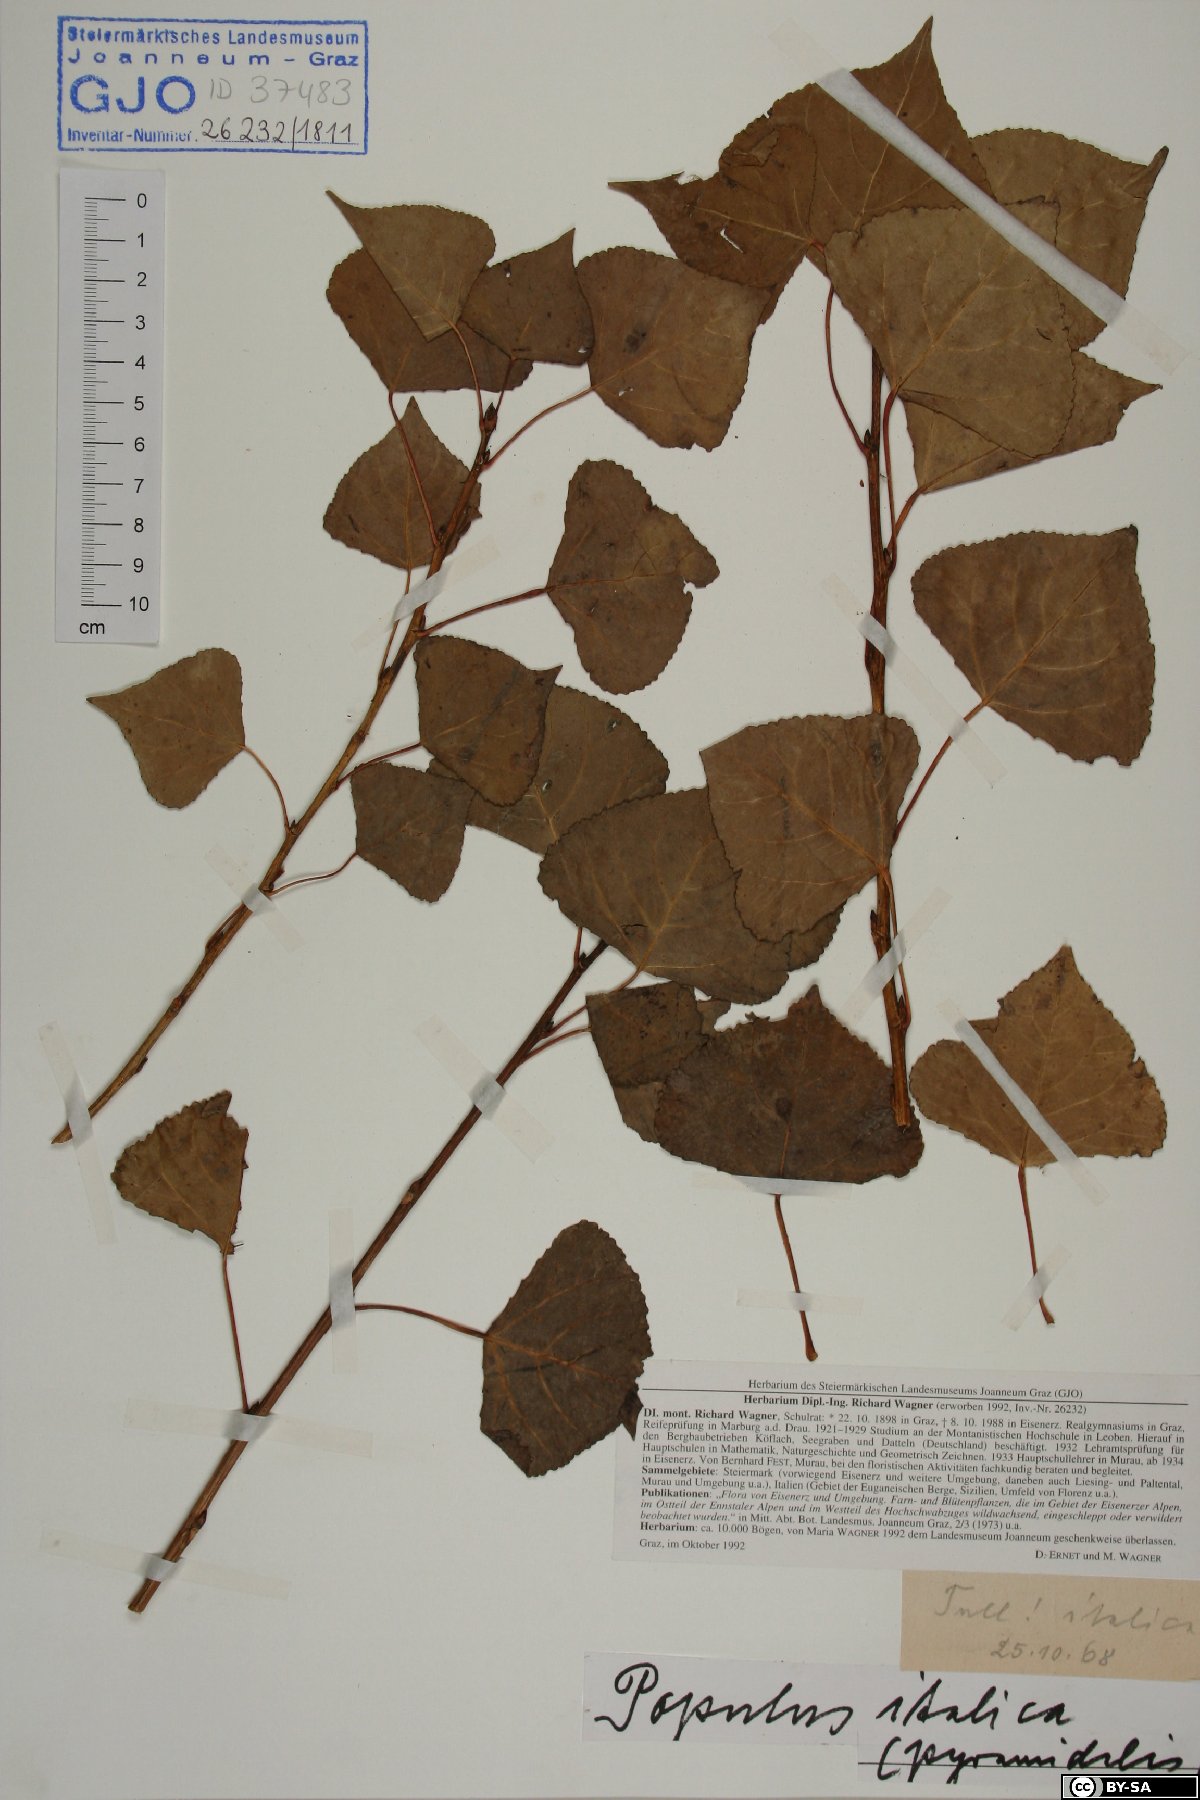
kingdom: Plantae
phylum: Tracheophyta
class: Magnoliopsida
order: Malpighiales
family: Salicaceae
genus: Populus
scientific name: Populus nigra
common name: Black poplar
